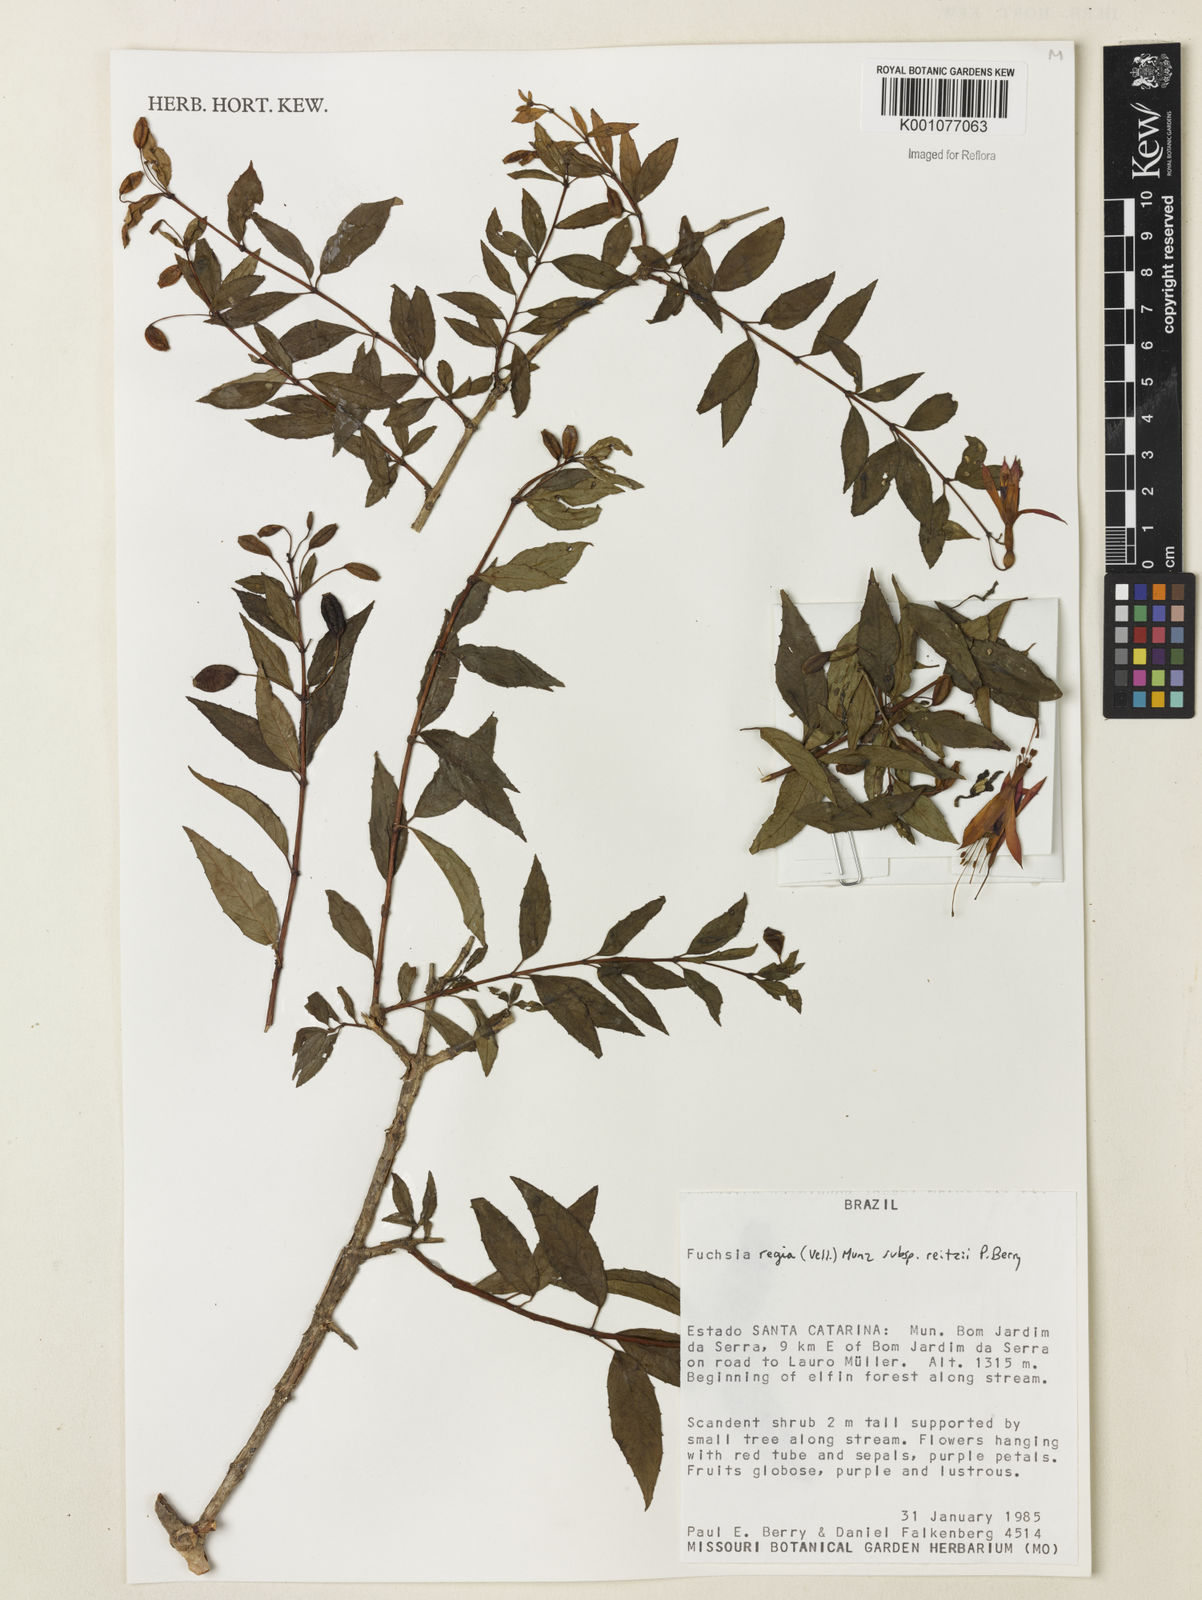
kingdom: Plantae
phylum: Tracheophyta
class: Magnoliopsida
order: Myrtales
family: Onagraceae
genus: Fuchsia
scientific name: Fuchsia regia
